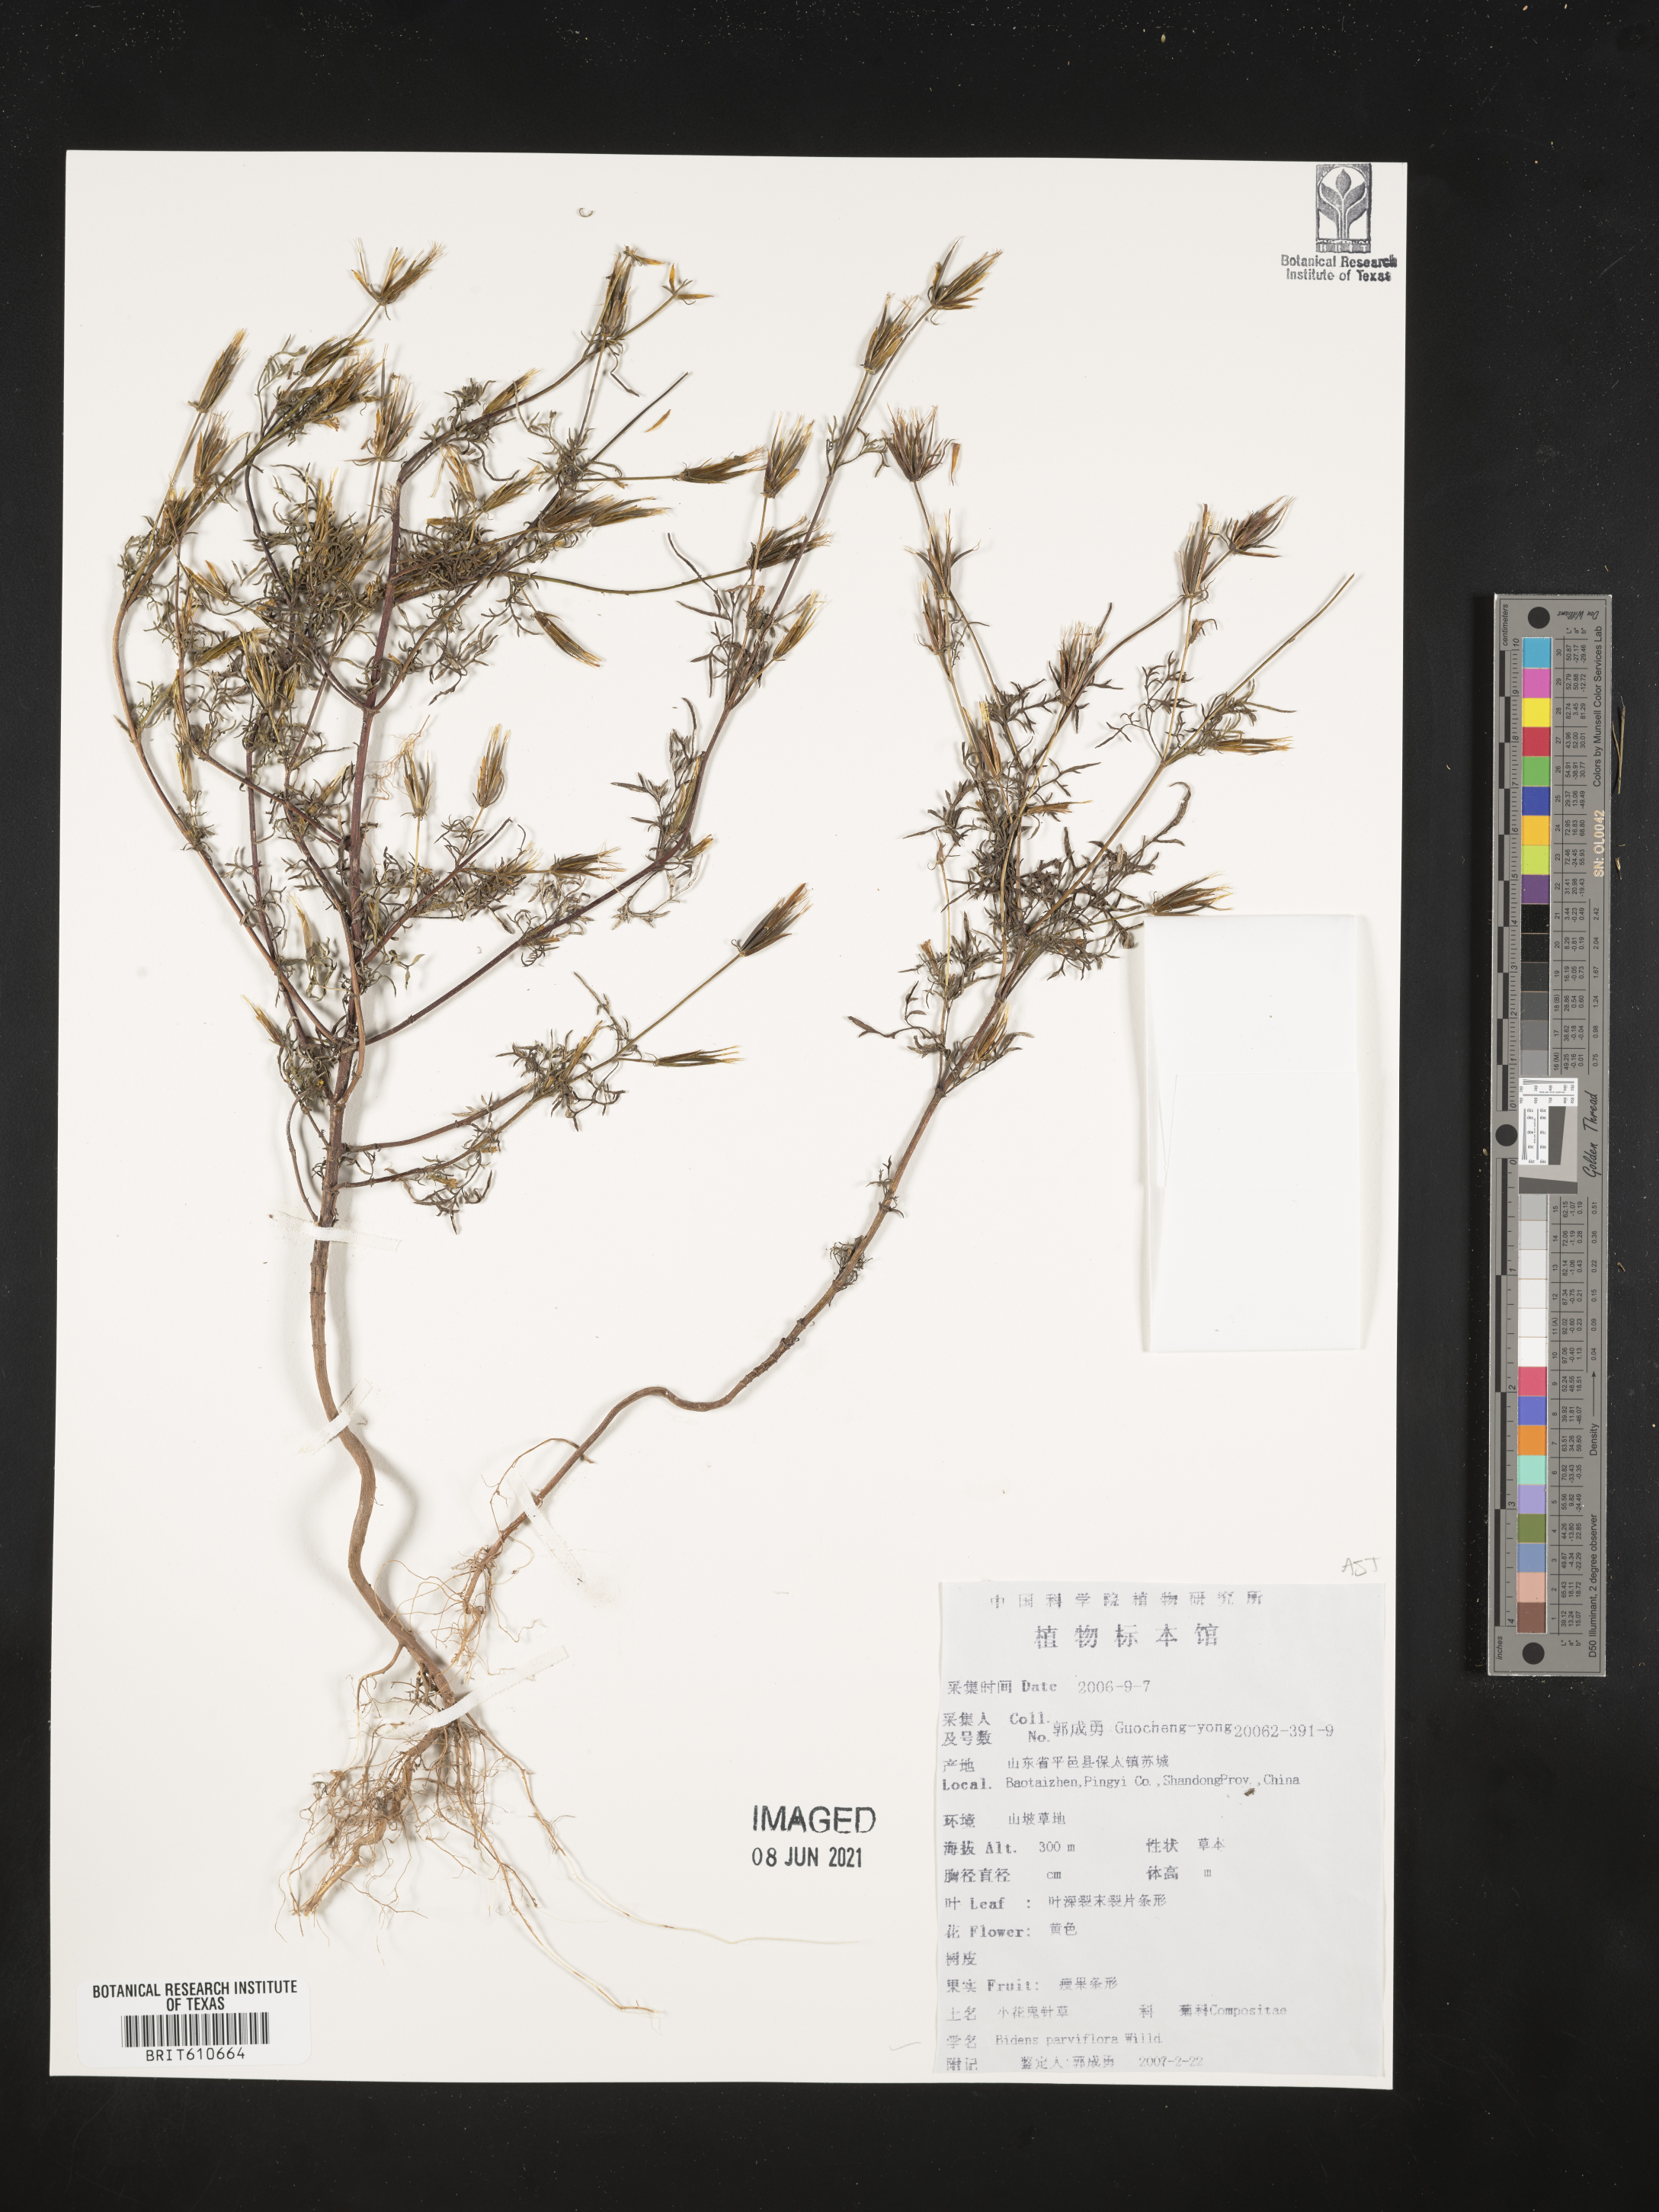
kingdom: Plantae
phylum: Tracheophyta
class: Magnoliopsida
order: Asterales
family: Asteraceae
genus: Bidens
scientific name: Bidens parviflora
